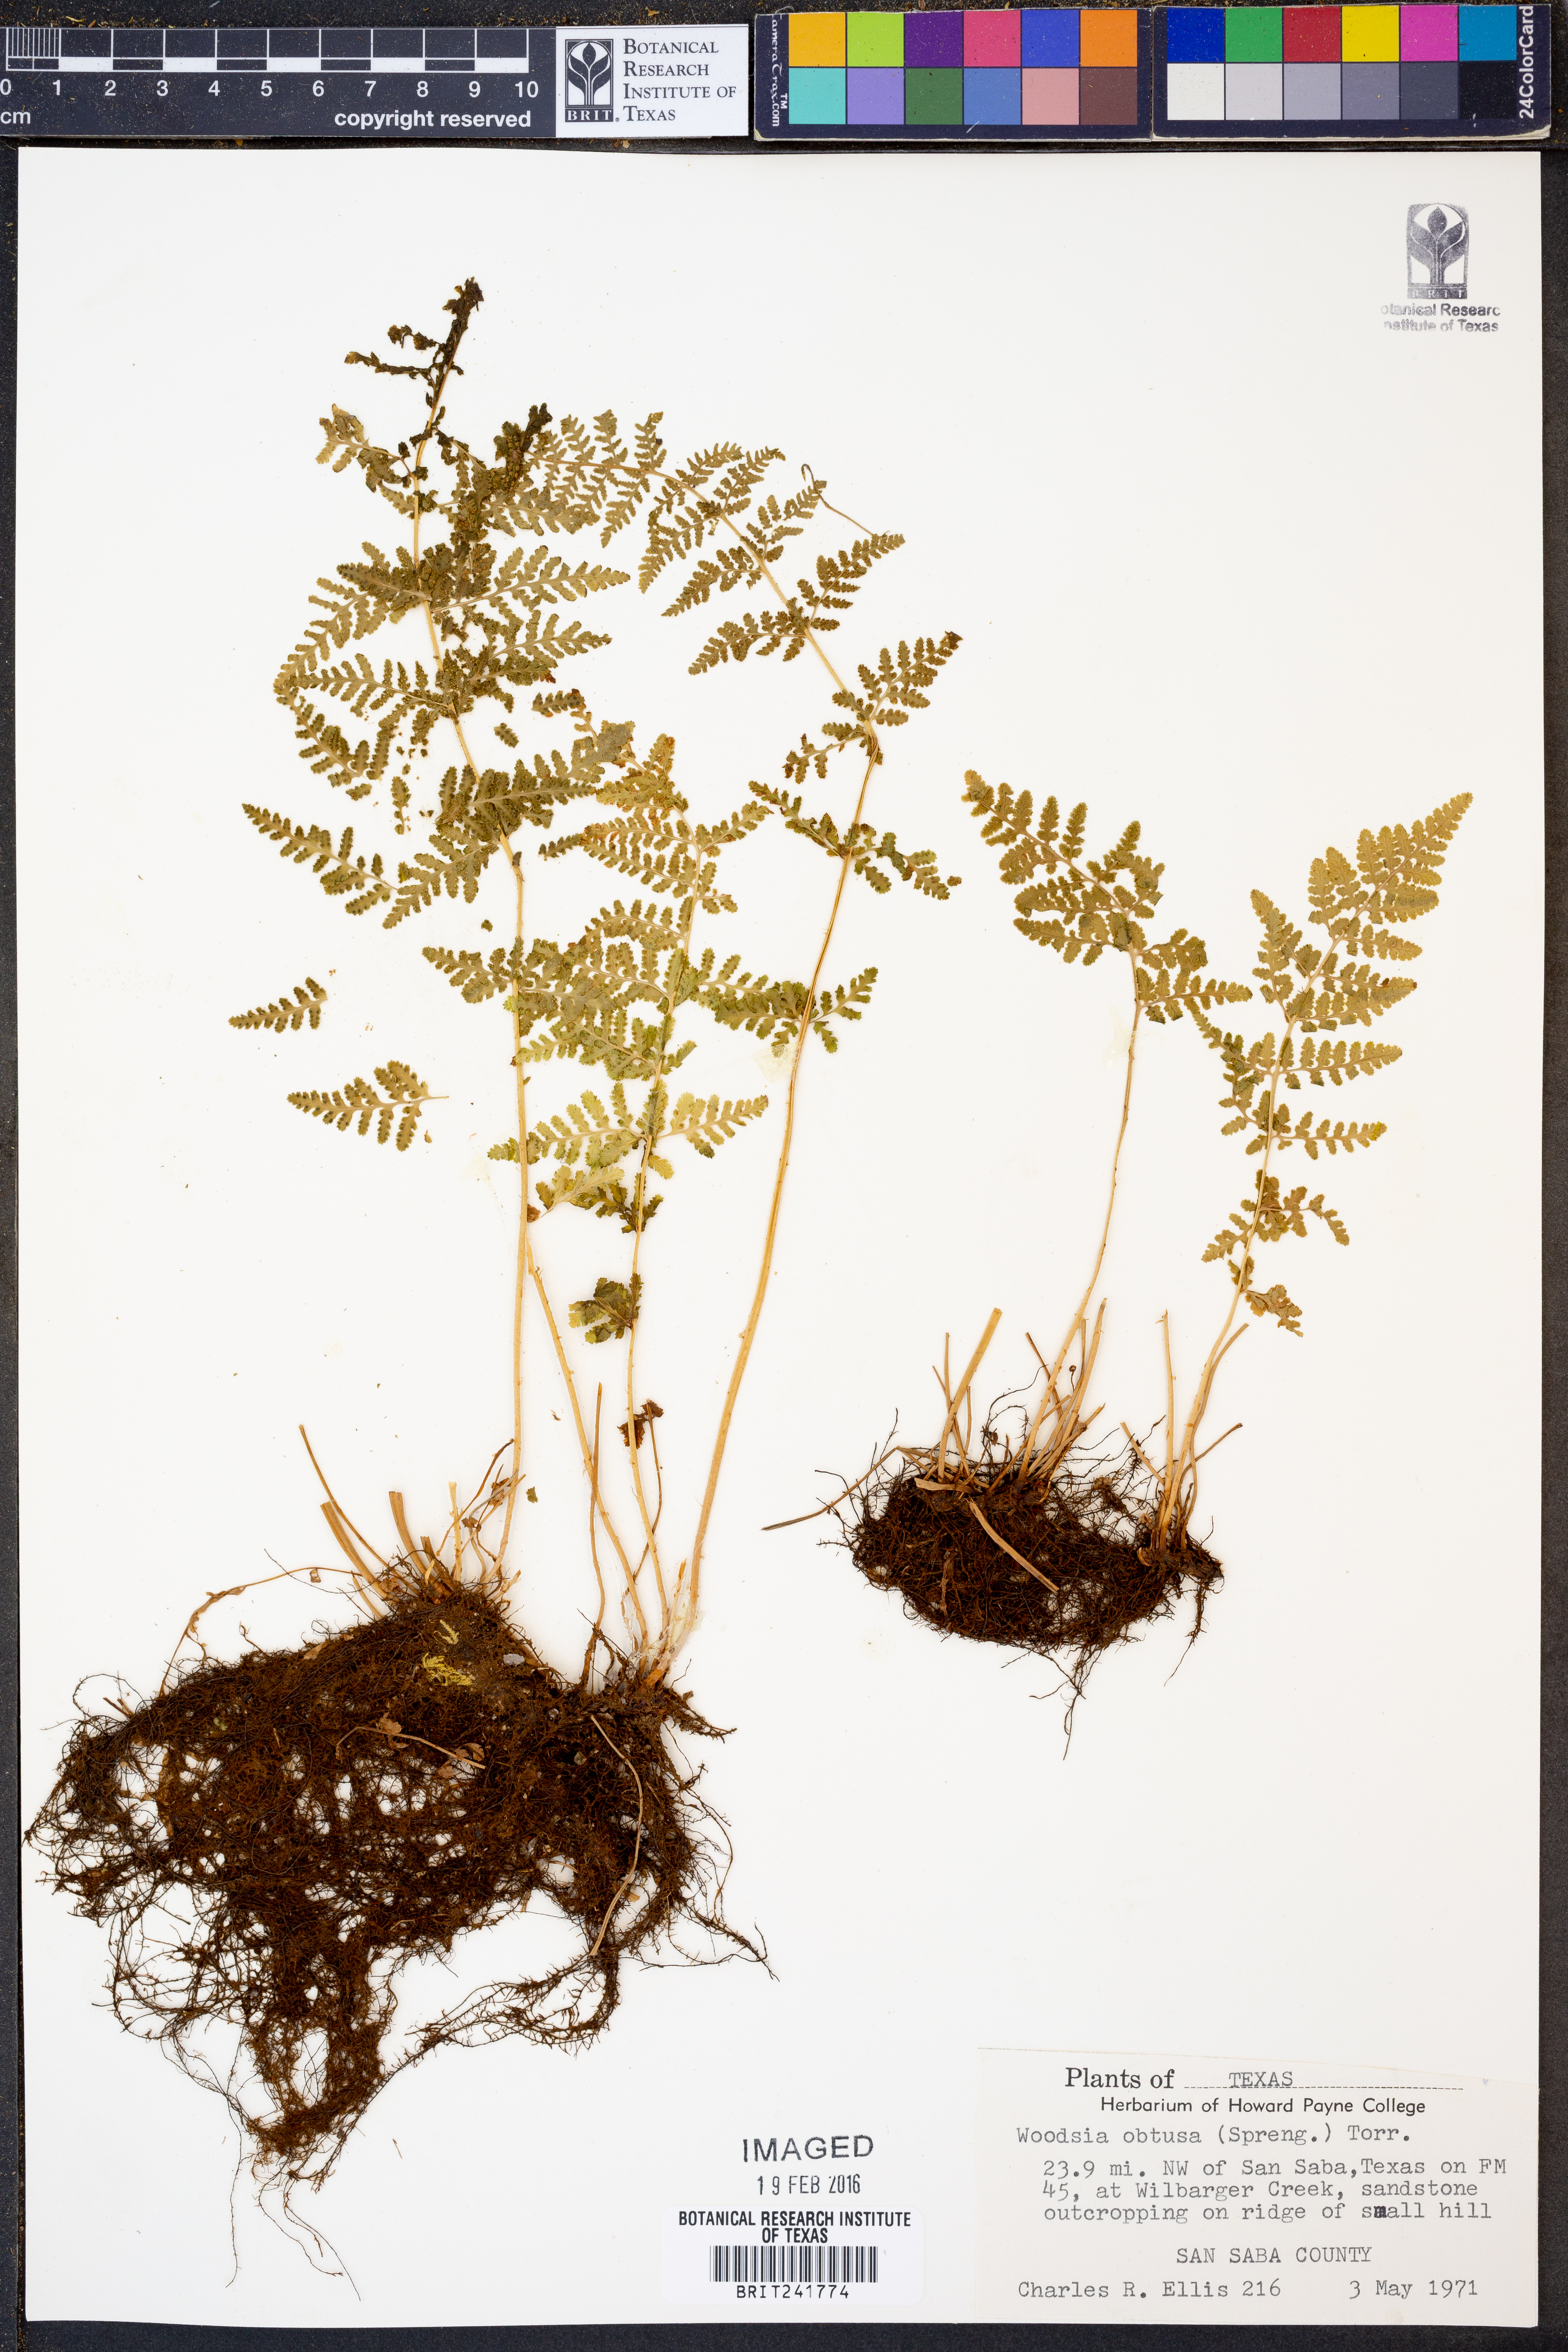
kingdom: Plantae
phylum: Tracheophyta
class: Polypodiopsida
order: Polypodiales
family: Woodsiaceae
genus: Physematium
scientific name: Physematium obtusum
